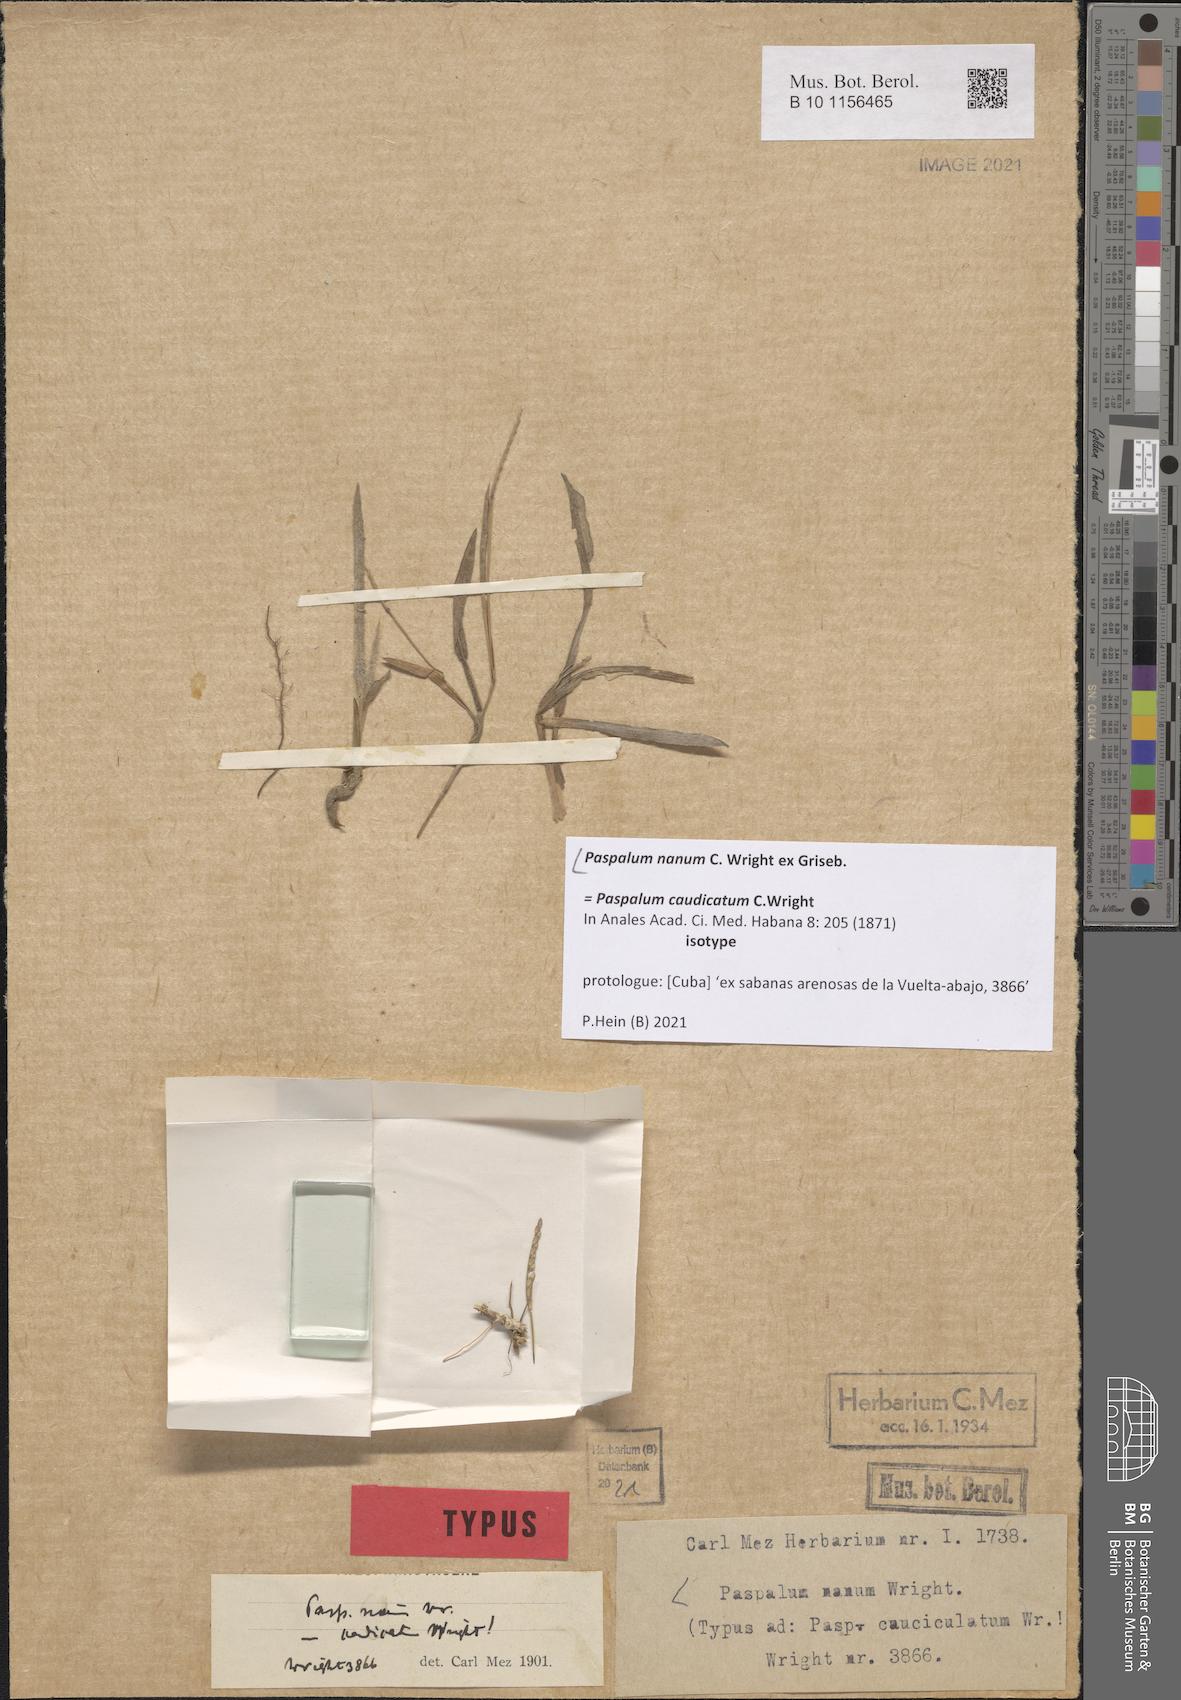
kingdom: Plantae
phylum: Tracheophyta
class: Liliopsida
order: Poales
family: Poaceae
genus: Paspalum
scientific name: Paspalum nanum
